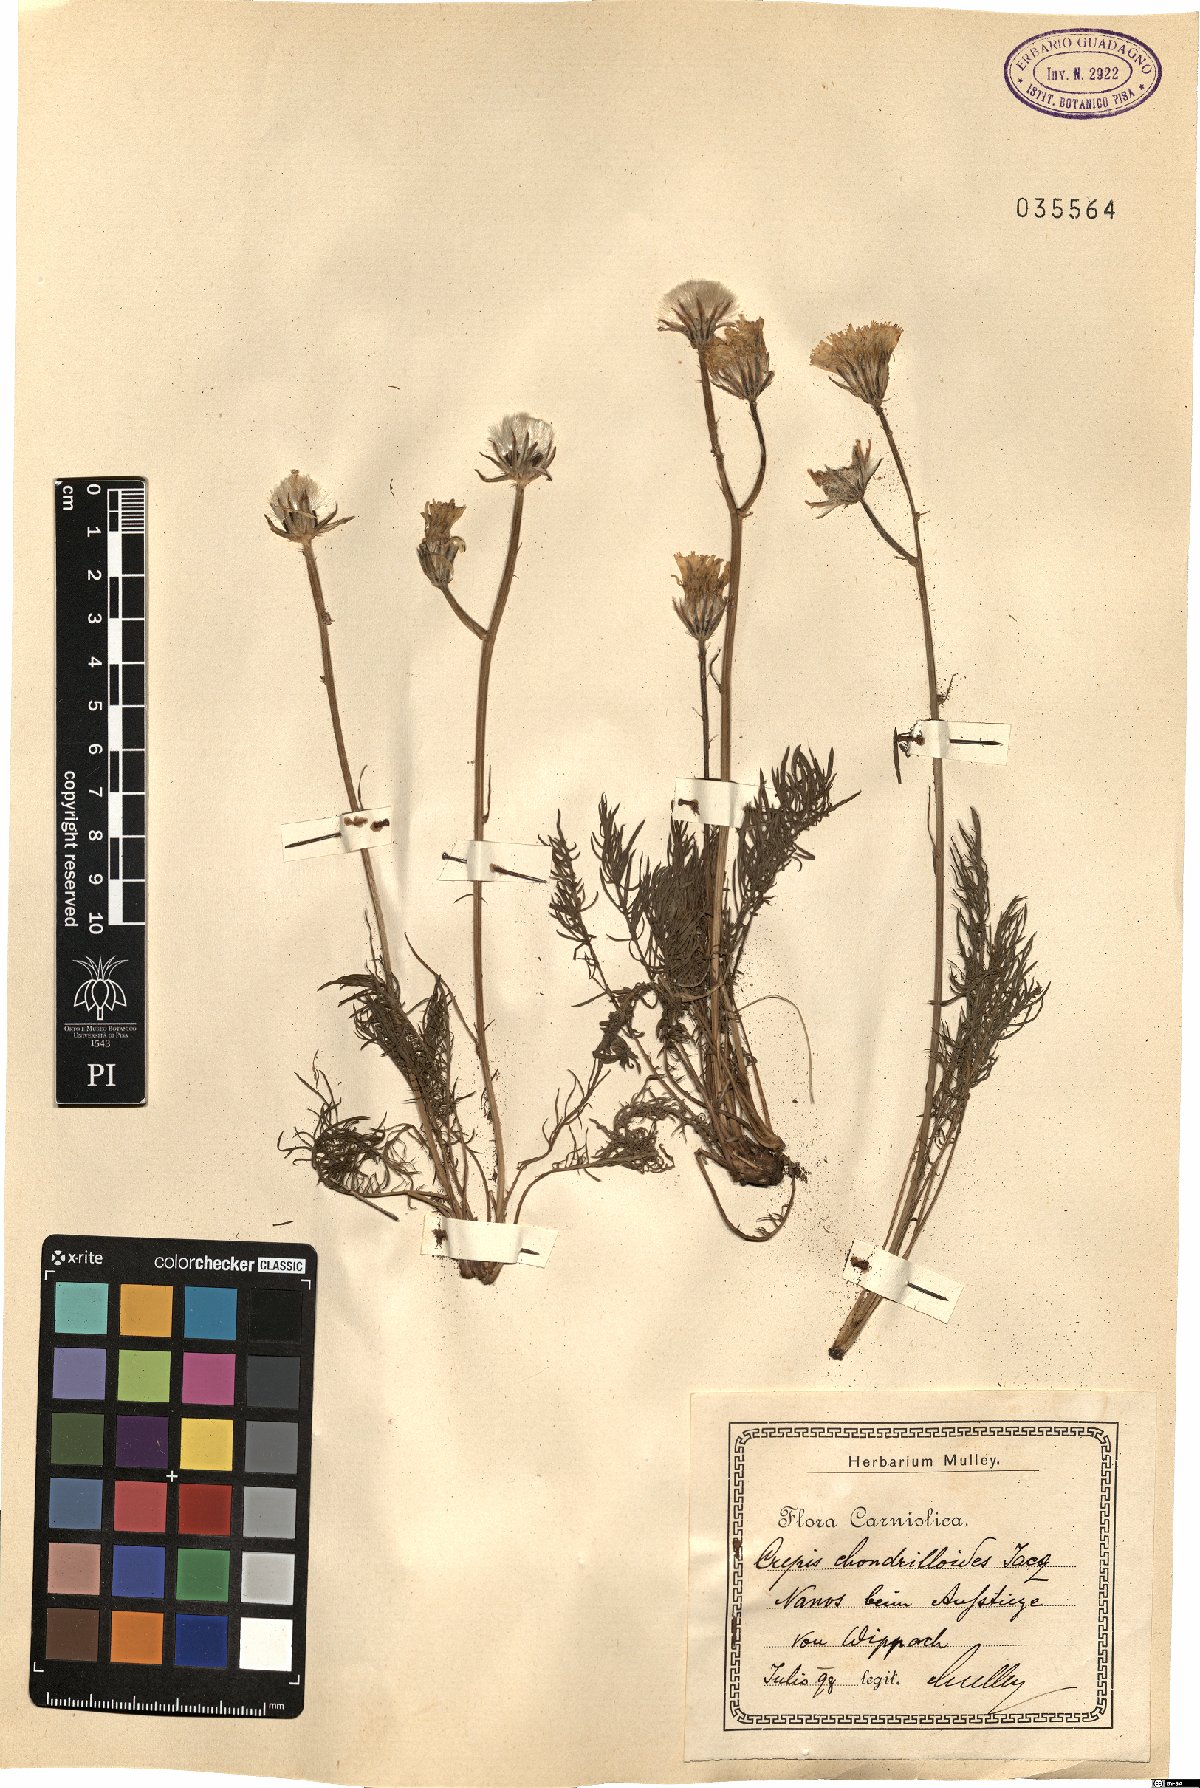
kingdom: Plantae
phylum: Tracheophyta
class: Magnoliopsida
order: Asterales
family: Asteraceae
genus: Crepis
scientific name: Crepis chondrilloides
